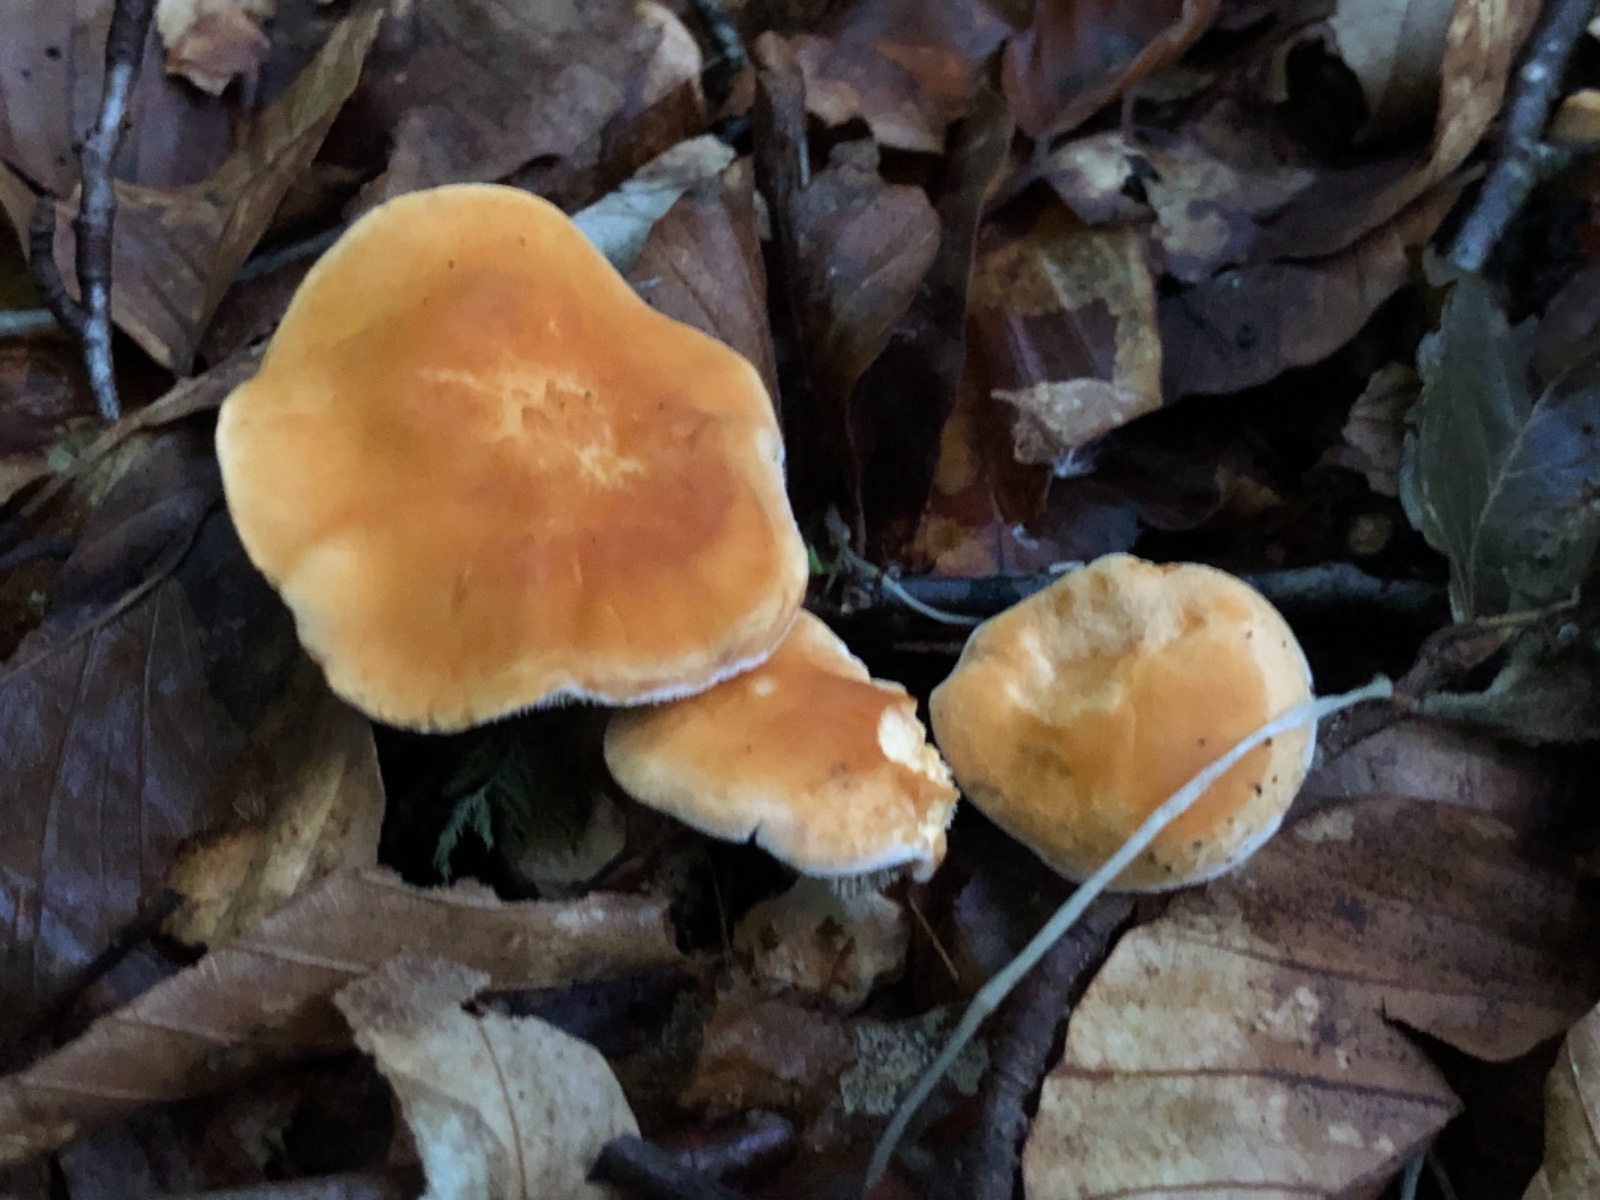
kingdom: Fungi
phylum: Basidiomycota
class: Agaricomycetes
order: Cantharellales
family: Hydnaceae
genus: Hydnum
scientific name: Hydnum rufescens
